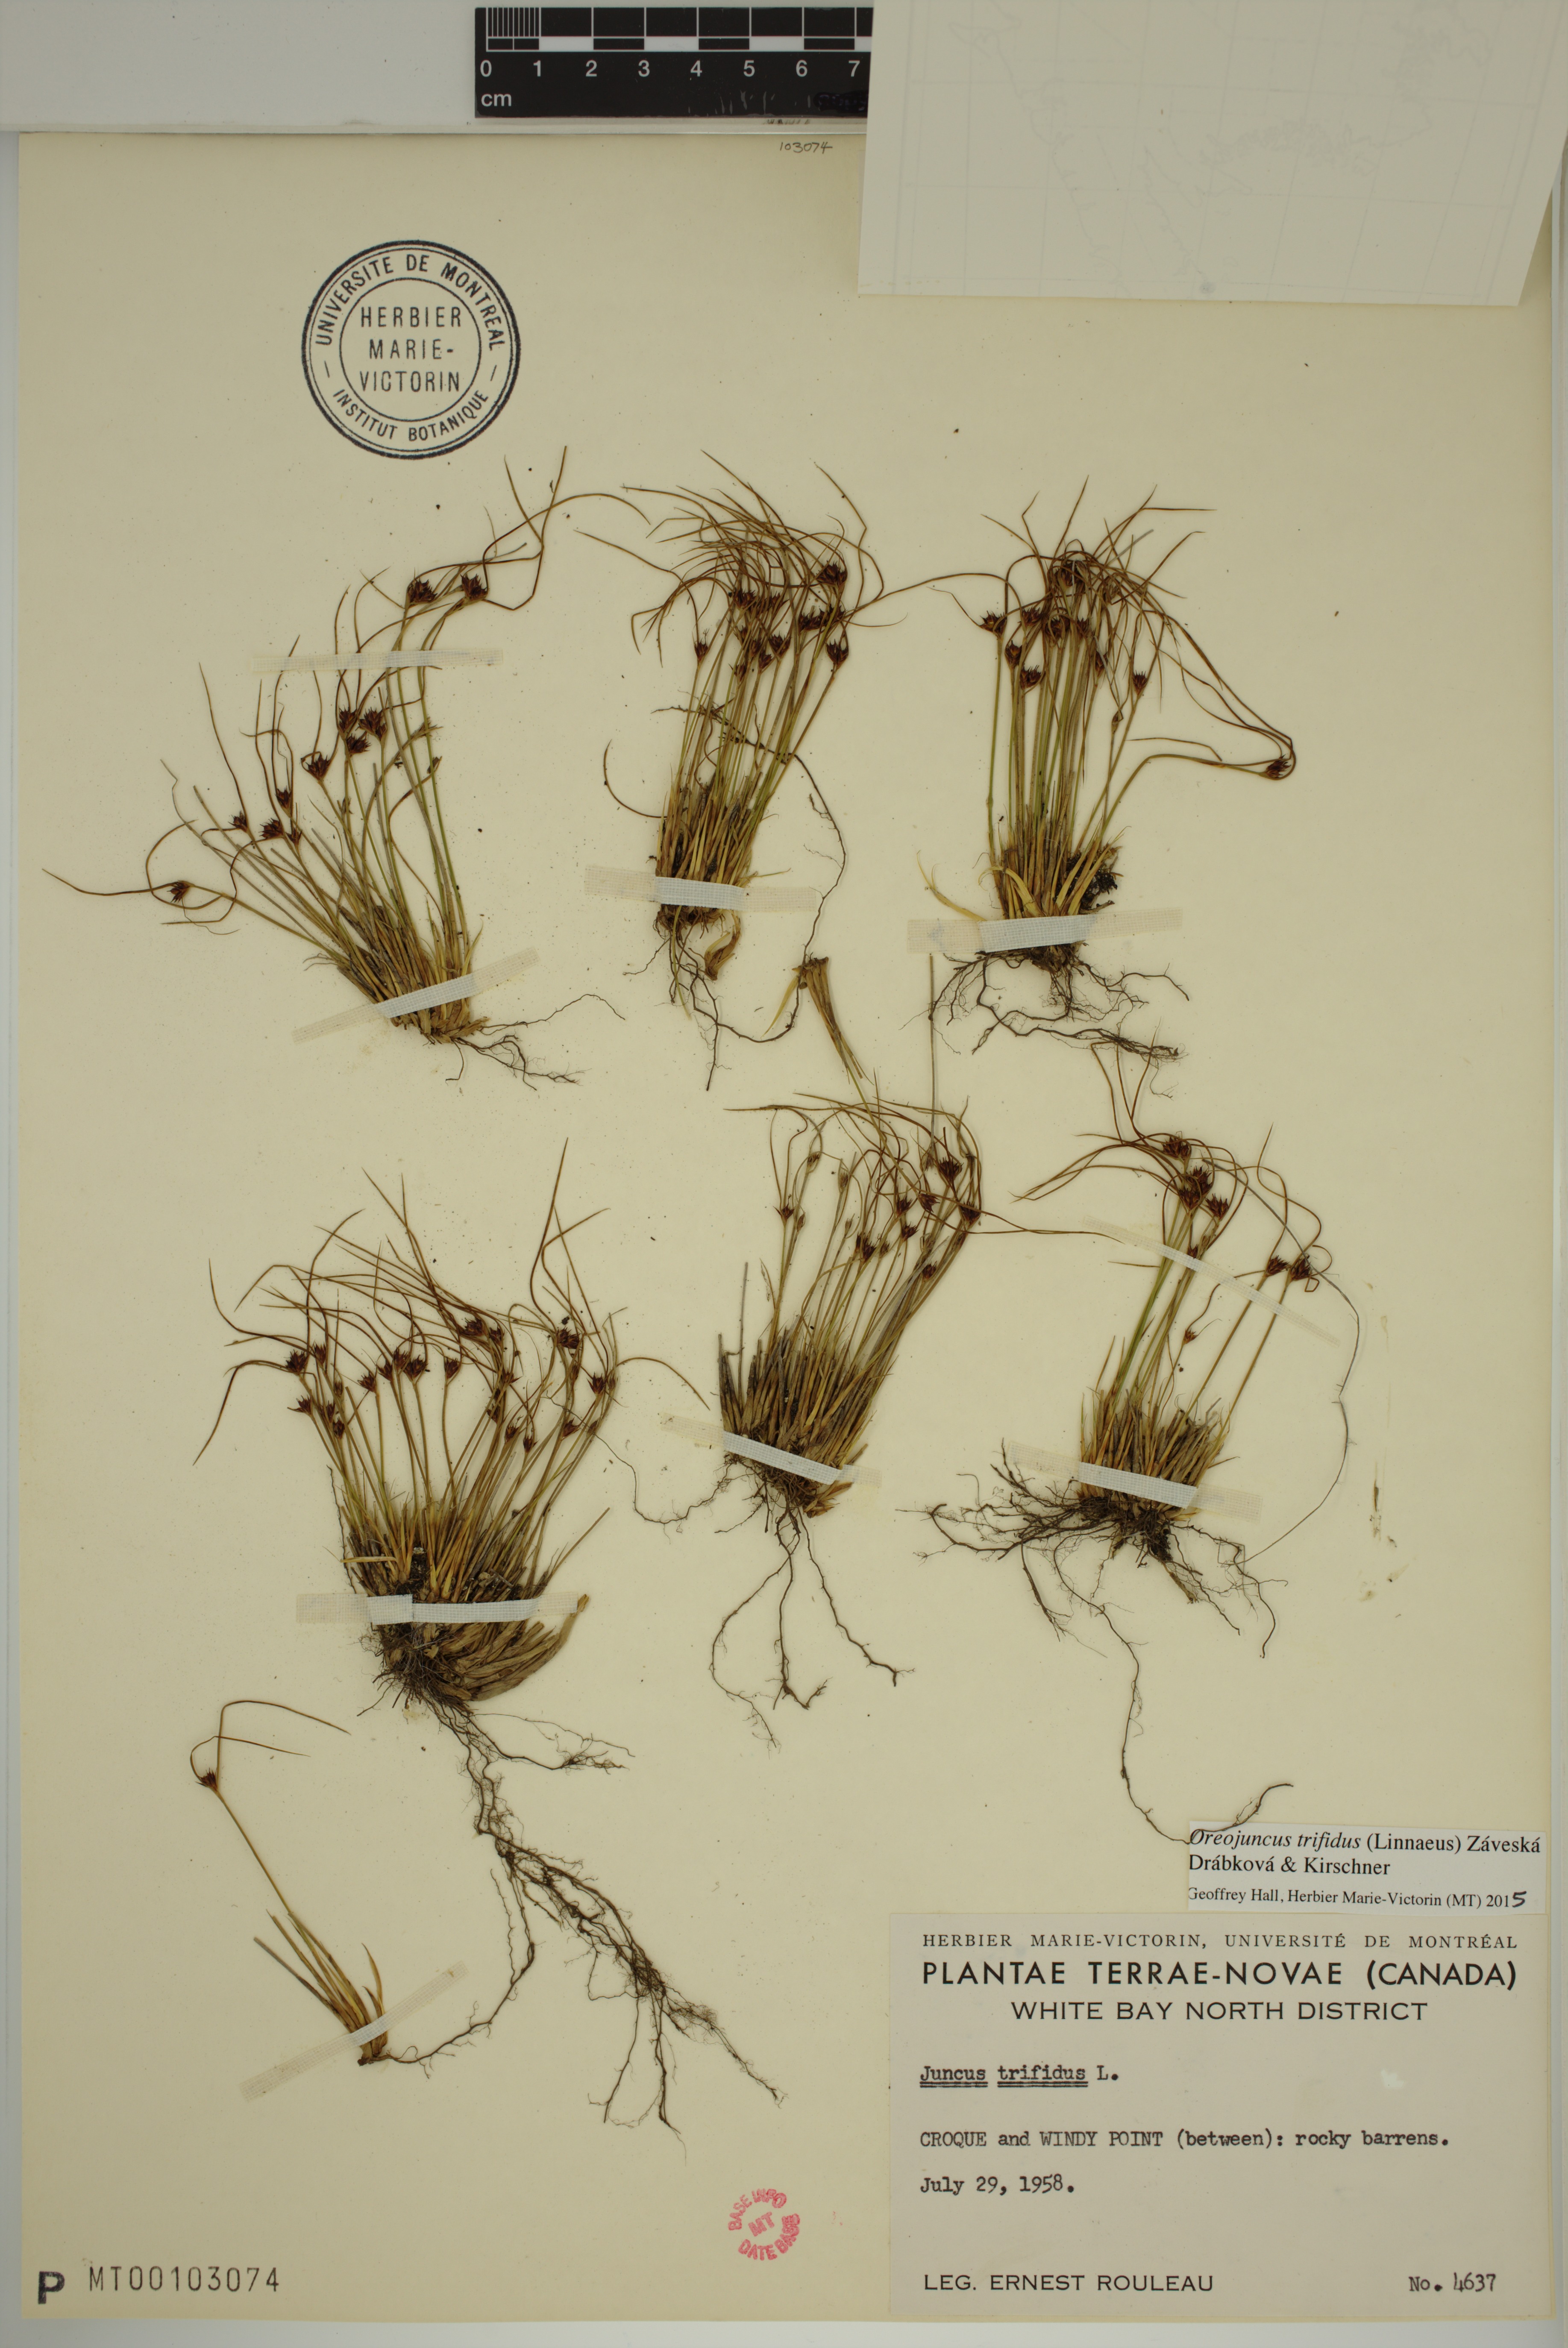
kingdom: Plantae
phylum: Tracheophyta
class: Liliopsida
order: Poales
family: Juncaceae
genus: Oreojuncus
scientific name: Oreojuncus trifidus
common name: Highland rush
